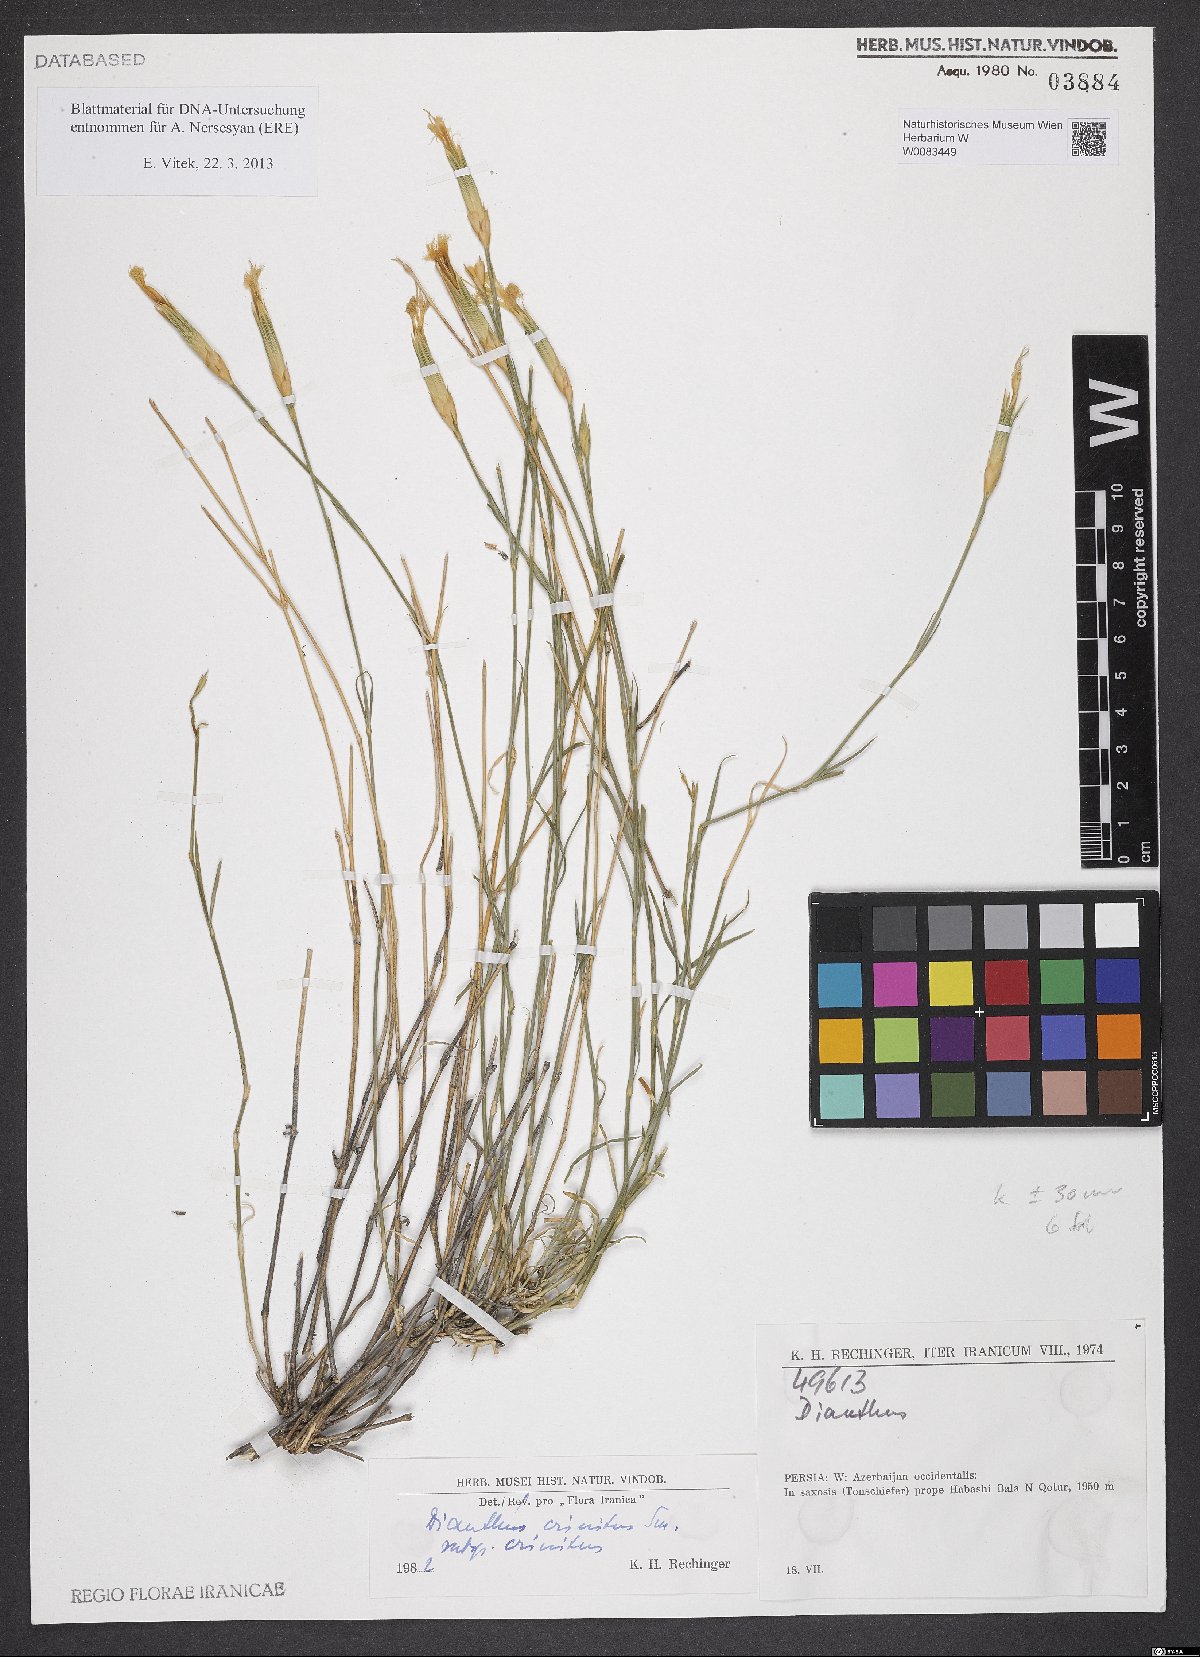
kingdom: Plantae
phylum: Tracheophyta
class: Magnoliopsida
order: Caryophyllales
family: Caryophyllaceae
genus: Dianthus
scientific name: Dianthus crinitus
